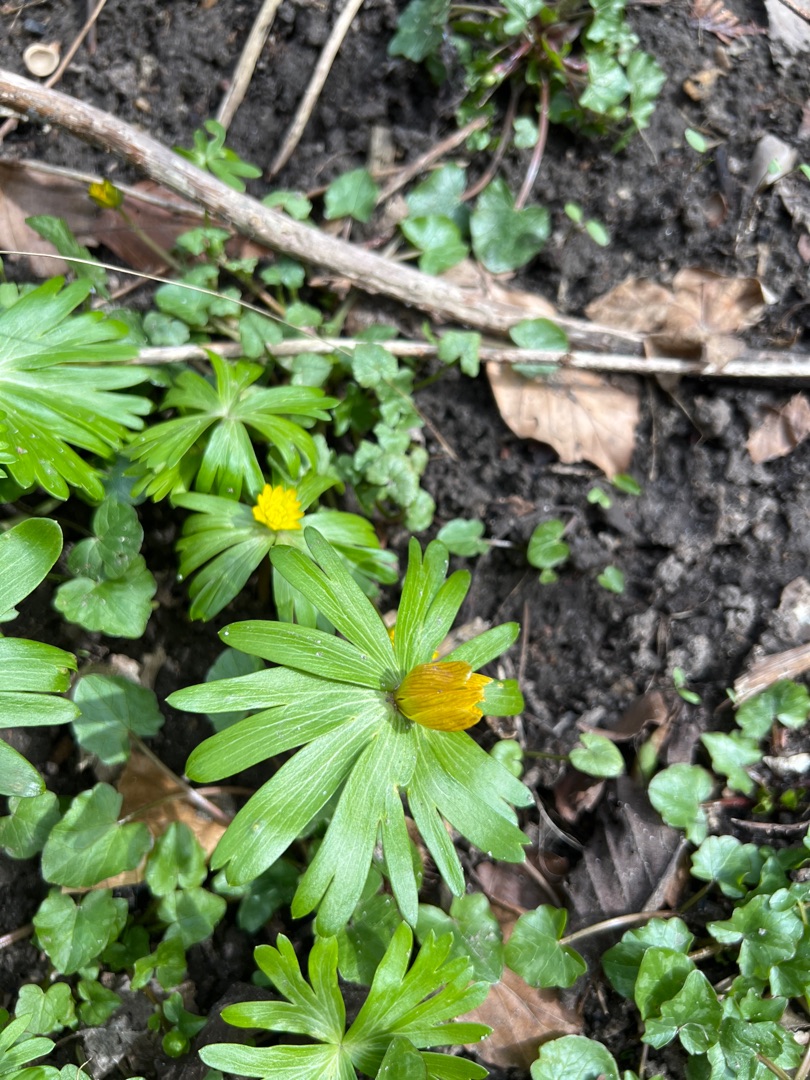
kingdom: Plantae
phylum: Tracheophyta
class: Magnoliopsida
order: Ranunculales
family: Ranunculaceae
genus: Eranthis
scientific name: Eranthis hyemalis
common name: Erantis
